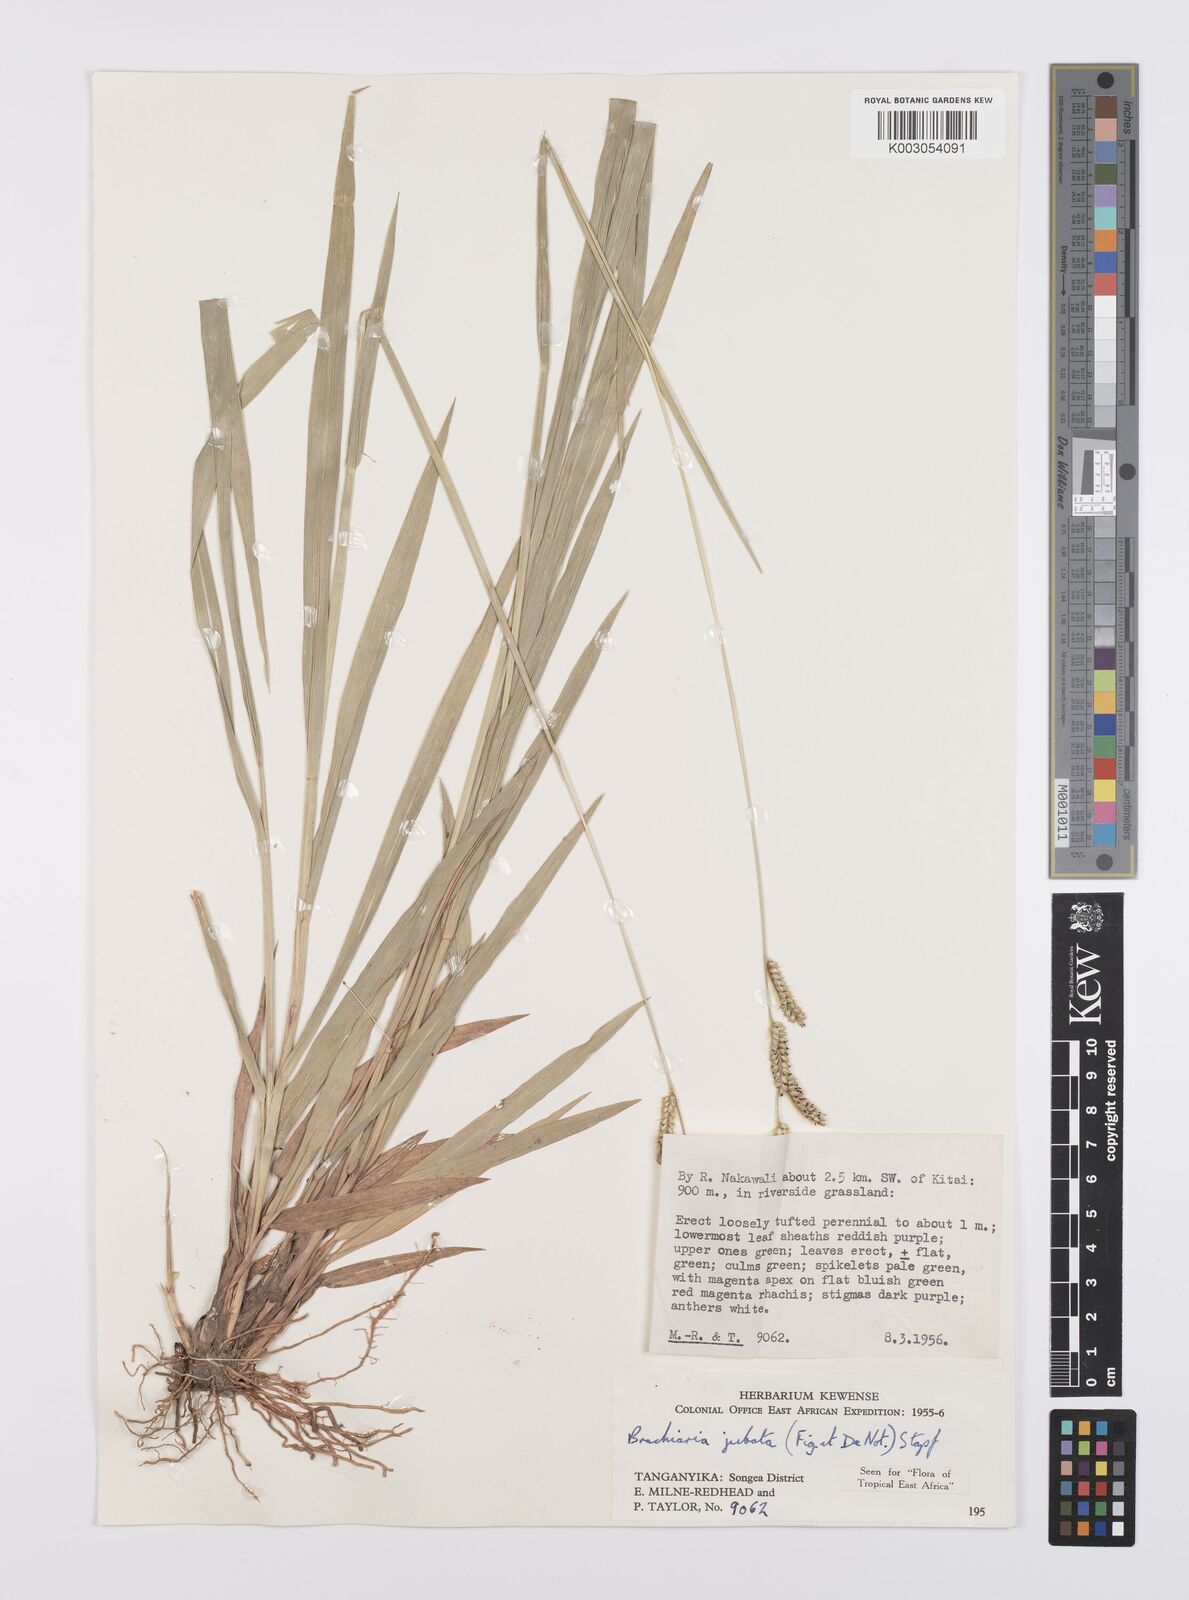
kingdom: Plantae
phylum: Tracheophyta
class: Liliopsida
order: Poales
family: Poaceae
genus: Urochloa
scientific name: Urochloa jubata
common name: Buffalograss
